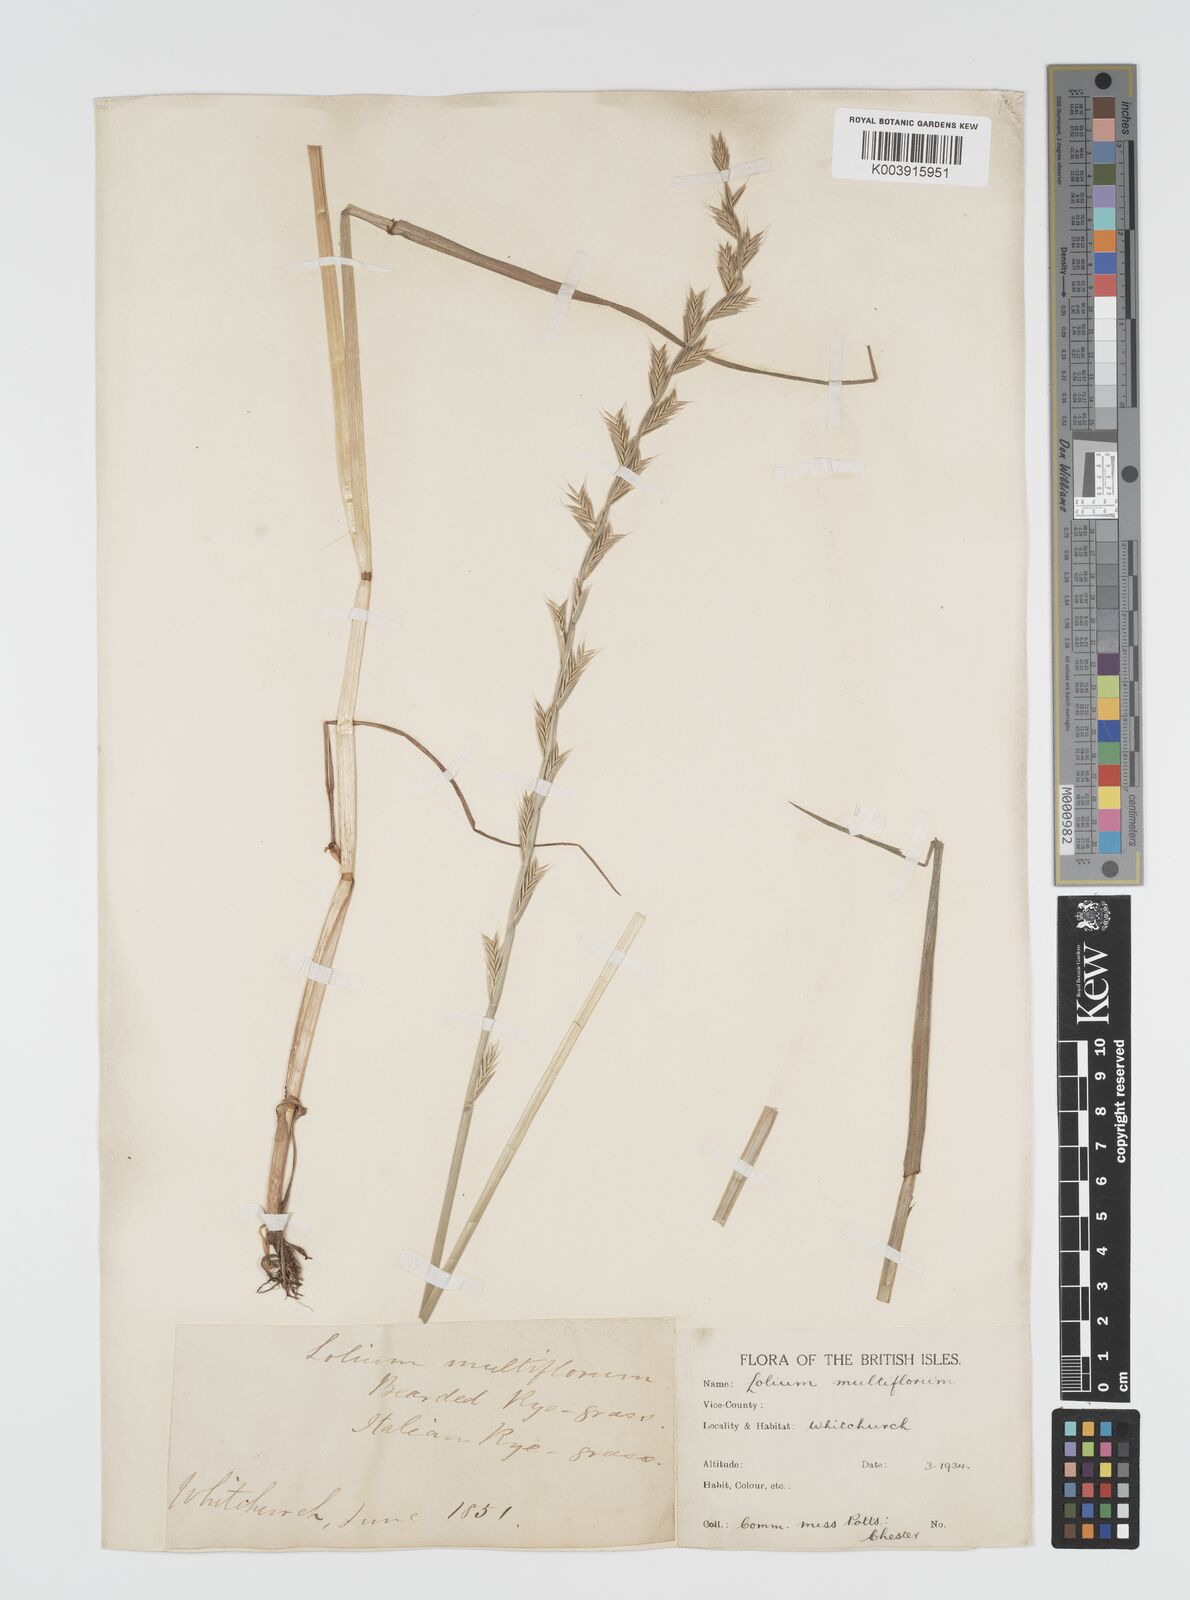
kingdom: Plantae
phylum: Tracheophyta
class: Liliopsida
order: Poales
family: Poaceae
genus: Lolium
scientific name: Lolium multiflorum
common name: Annual ryegrass
